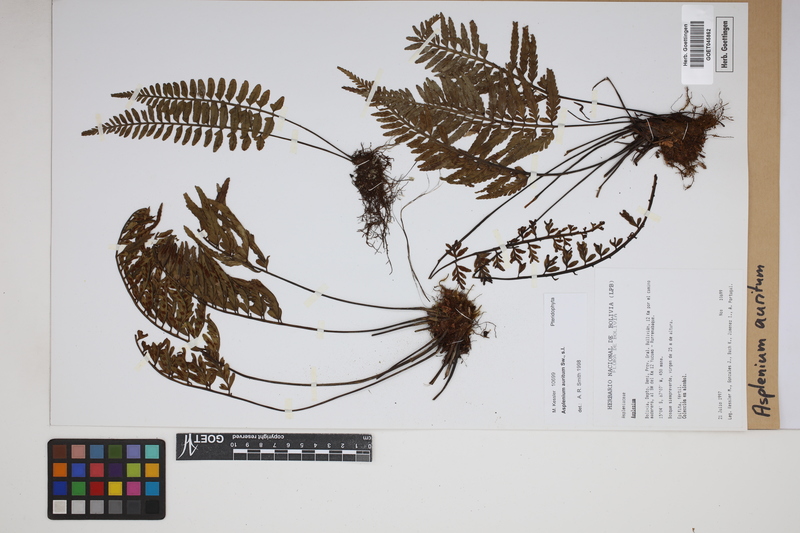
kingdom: Plantae
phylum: Tracheophyta
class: Polypodiopsida
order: Polypodiales
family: Aspleniaceae
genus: Asplenium
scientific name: Asplenium auritum
